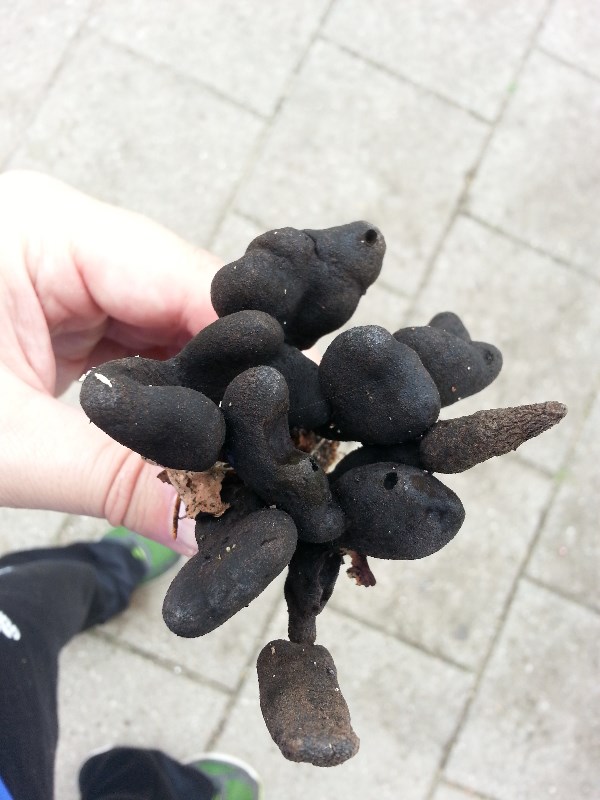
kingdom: Fungi
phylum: Ascomycota
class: Sordariomycetes
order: Xylariales
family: Xylariaceae
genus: Xylaria
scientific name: Xylaria polymorpha
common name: kølle-stødsvamp
